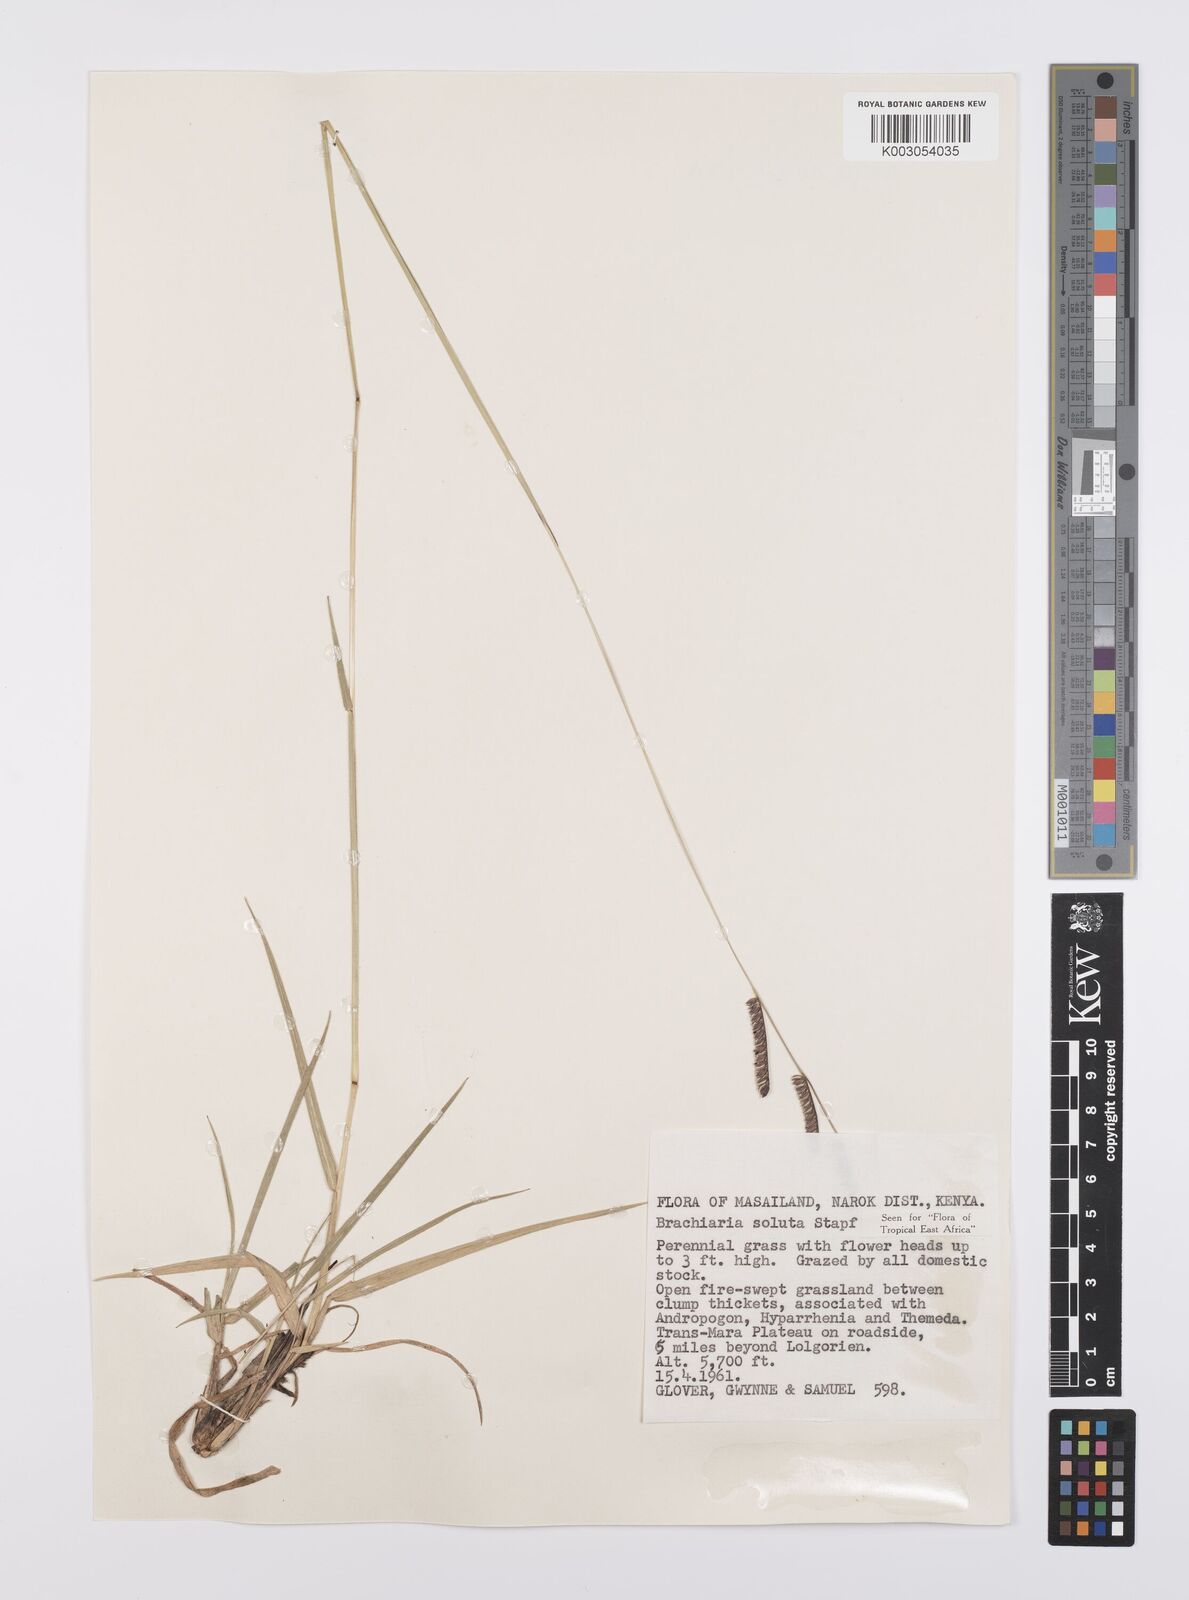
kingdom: Plantae
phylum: Tracheophyta
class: Liliopsida
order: Poales
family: Poaceae
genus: Urochloa
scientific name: Urochloa jubata
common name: Buffalograss
